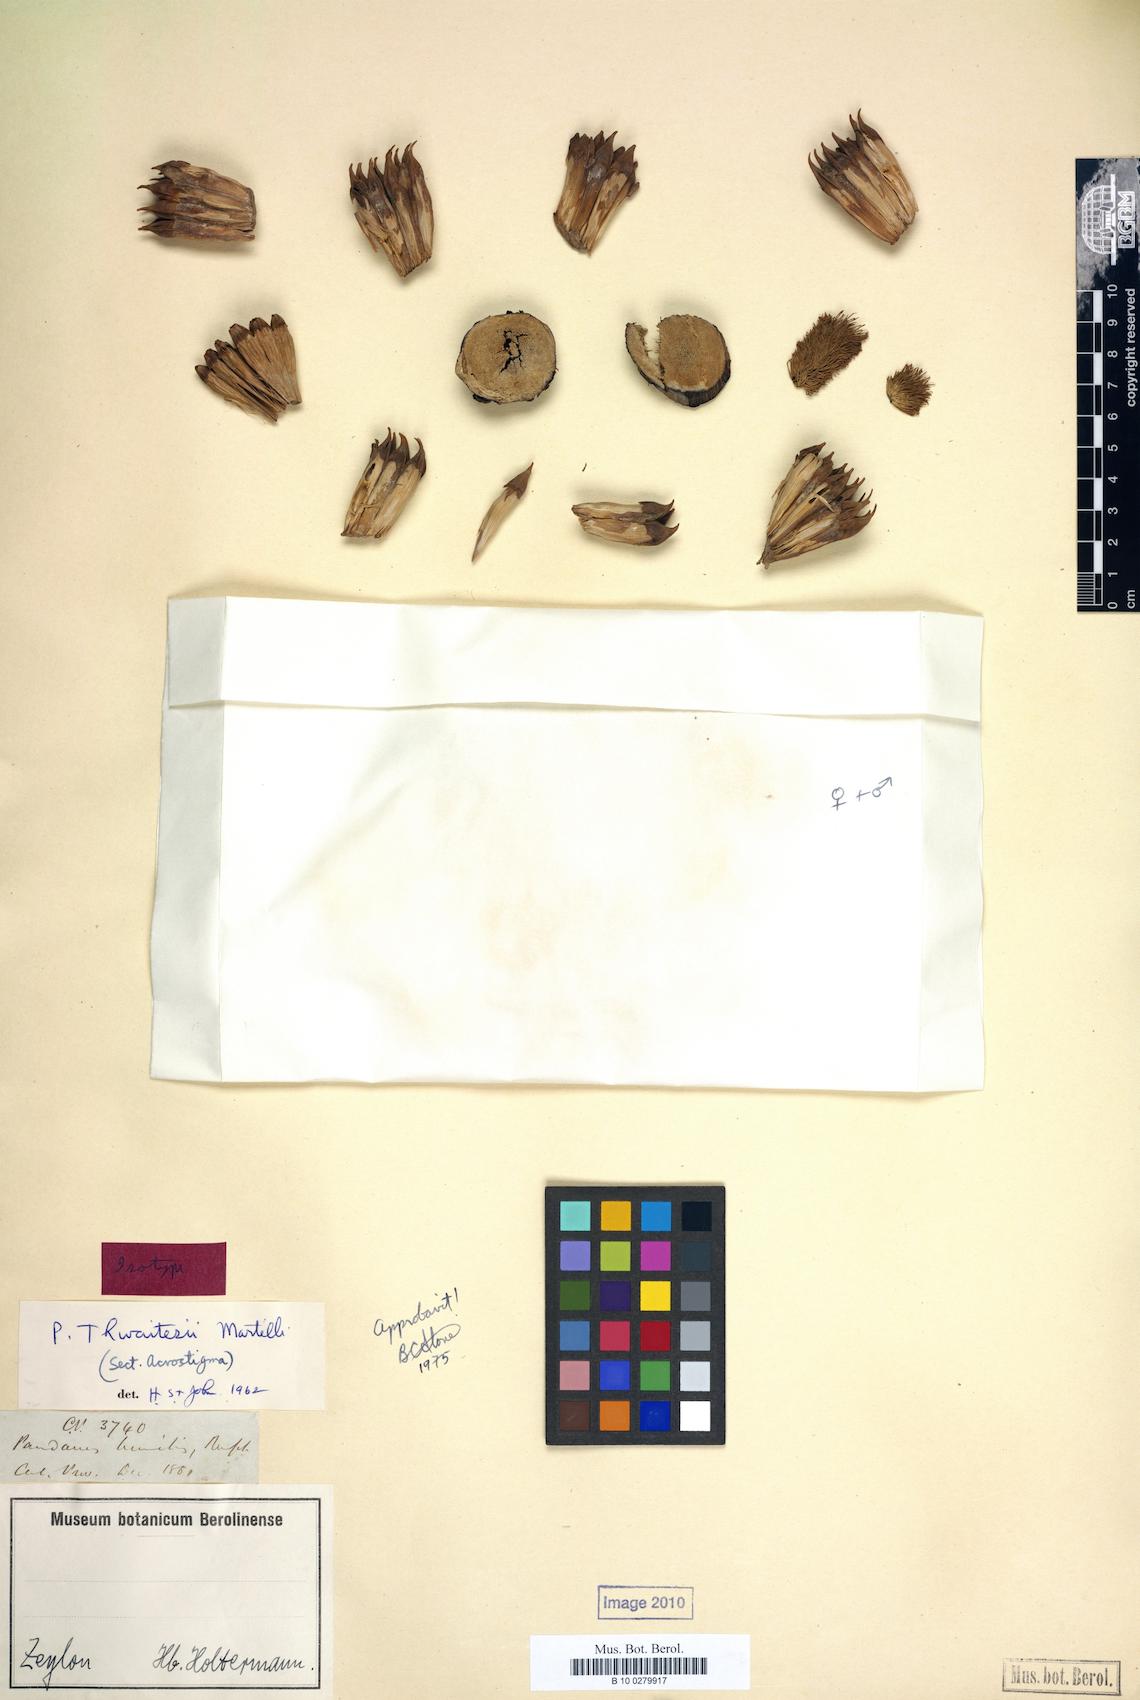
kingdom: Plantae
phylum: Tracheophyta
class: Liliopsida
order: Pandanales
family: Pandanaceae
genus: Benstonea
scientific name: Benstonea thwaitesii
